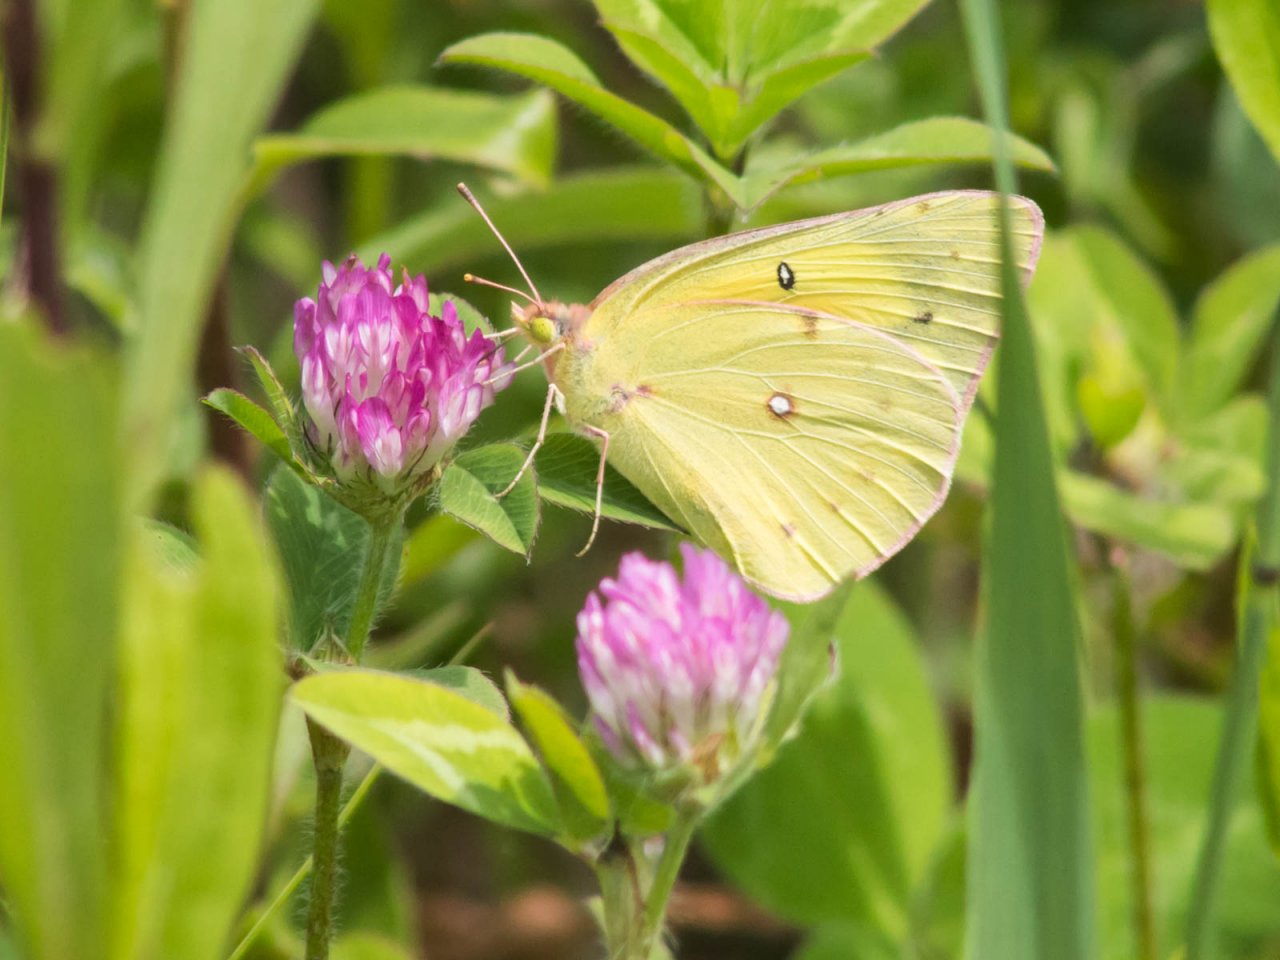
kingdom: Animalia
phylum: Arthropoda
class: Insecta
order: Lepidoptera
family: Pieridae
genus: Colias
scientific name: Colias eurytheme
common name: Orange Sulphur
